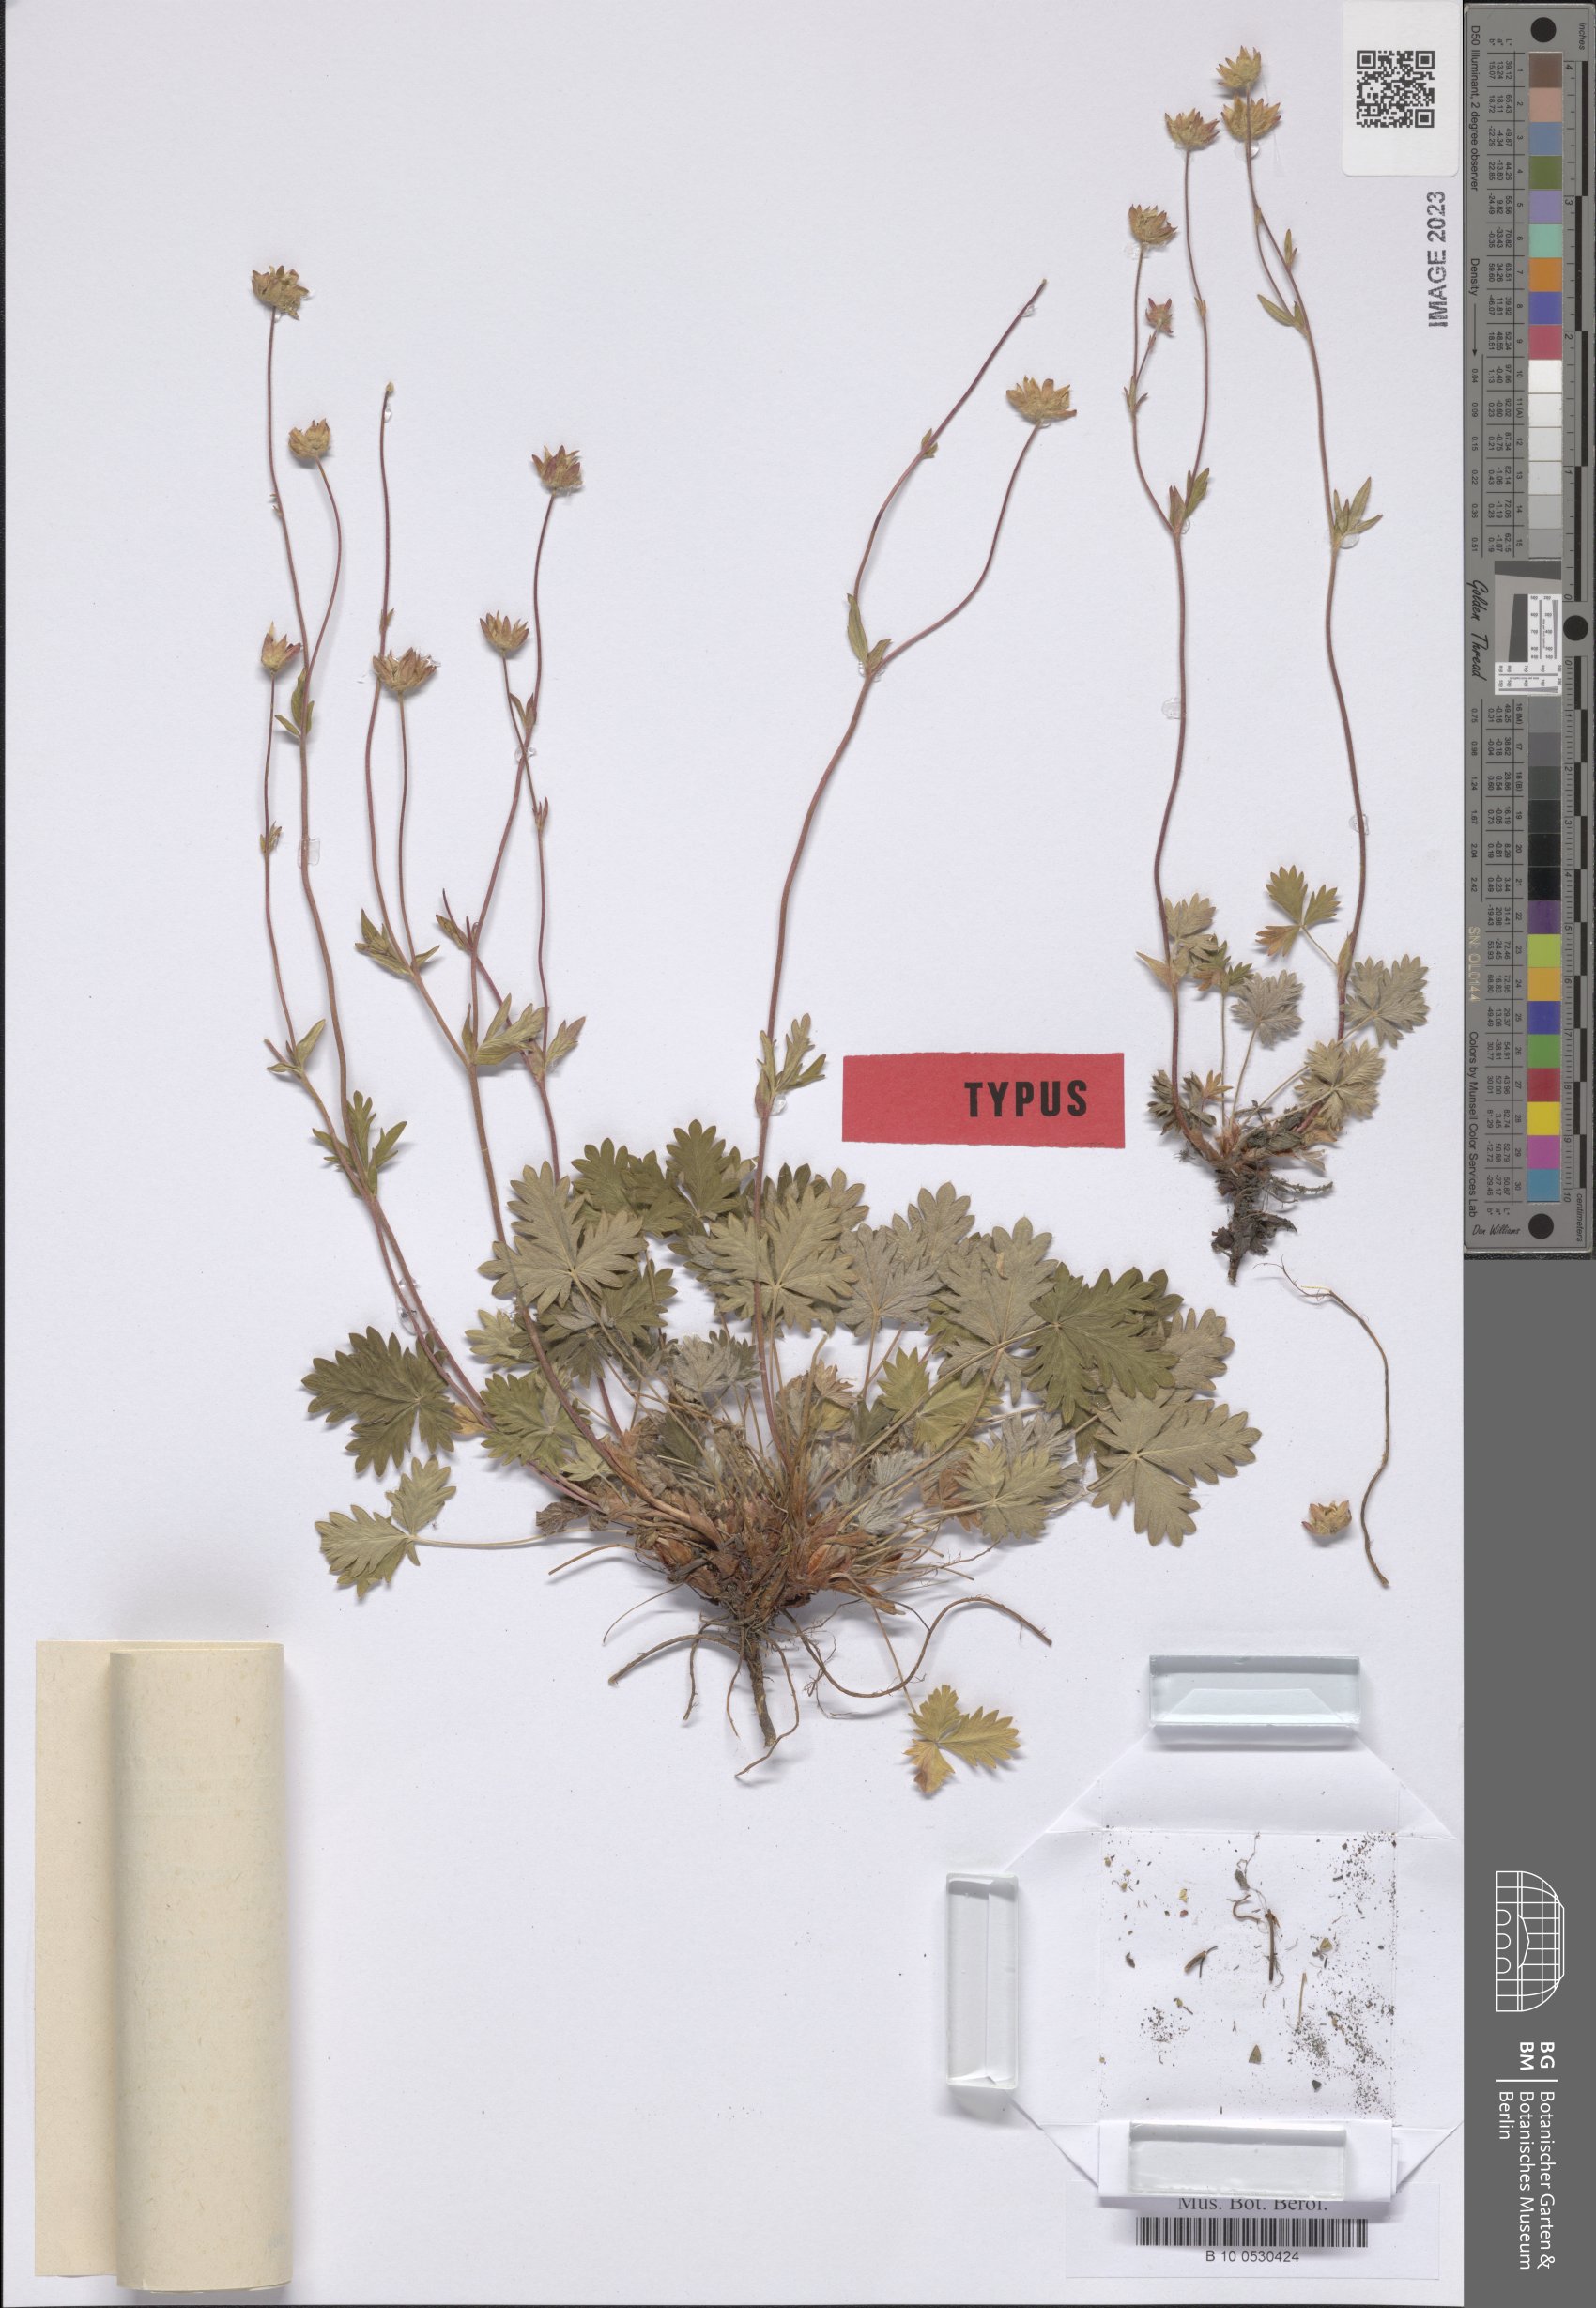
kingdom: Plantae
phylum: Tracheophyta
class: Magnoliopsida
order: Rosales
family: Rosaceae
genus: Potentilla
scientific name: Potentilla anjuica
